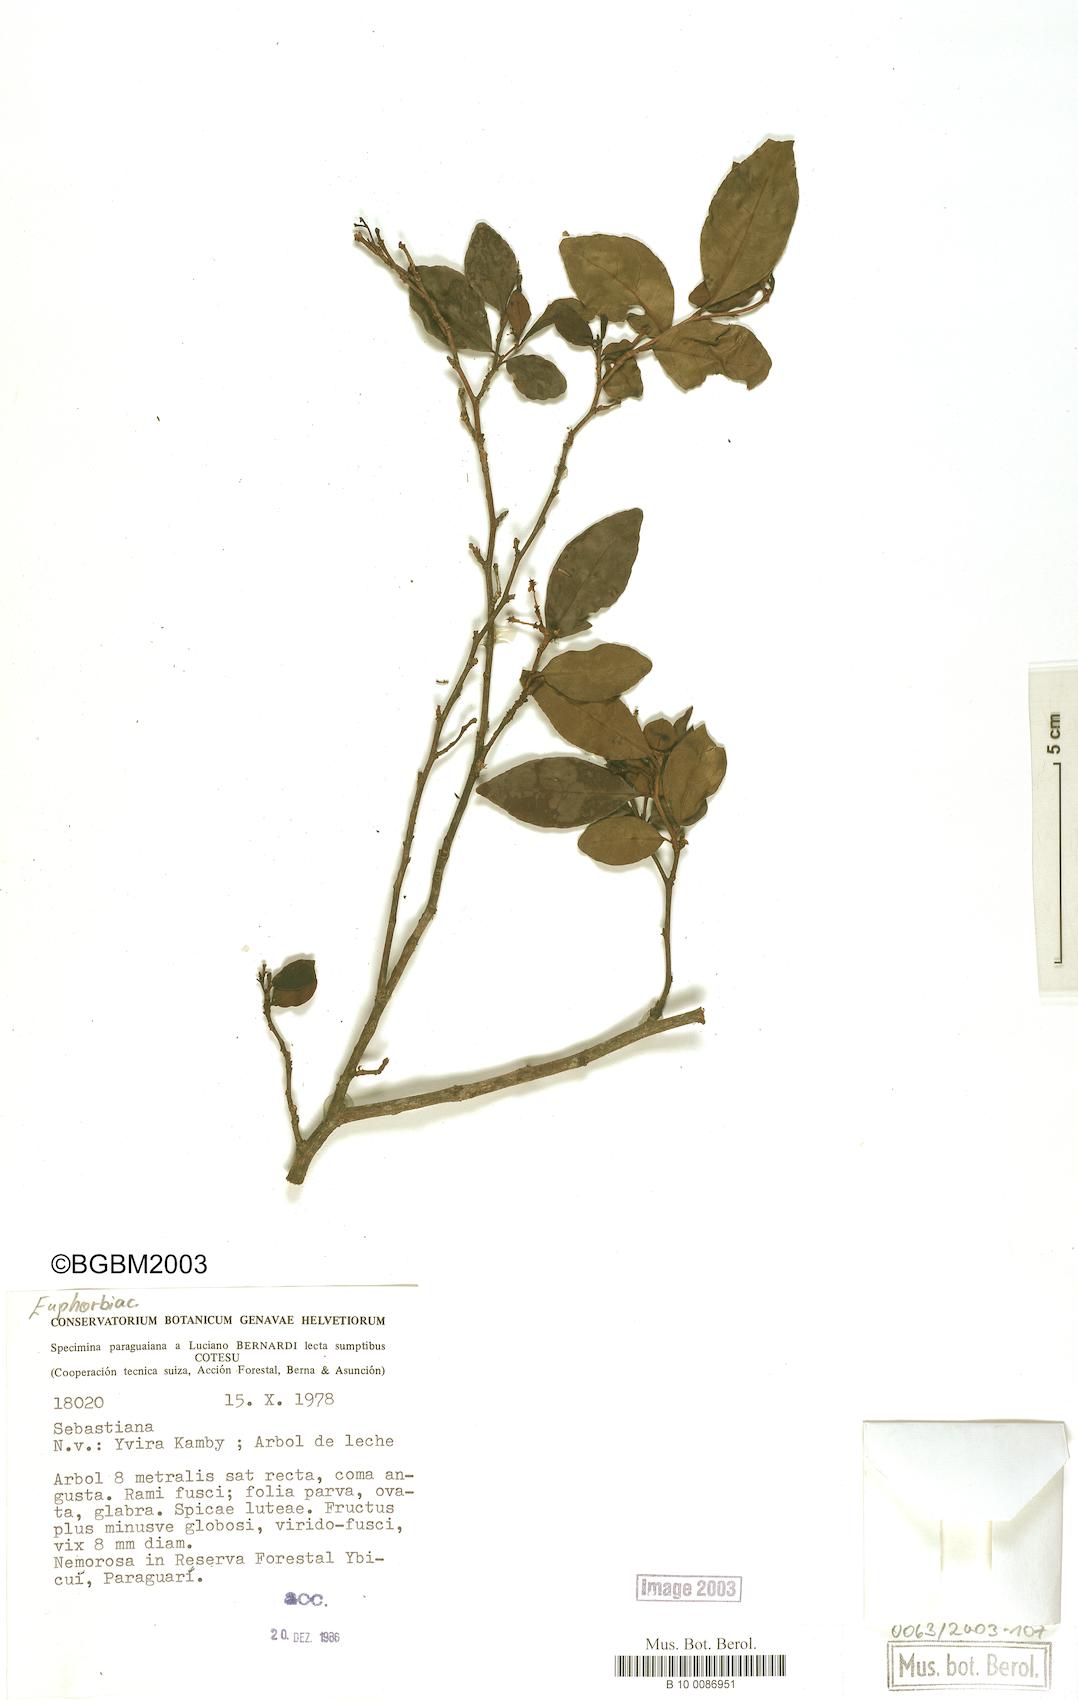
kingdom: Plantae
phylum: Tracheophyta
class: Magnoliopsida
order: Malpighiales
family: Euphorbiaceae
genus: Sebastiania
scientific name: Sebastiania brasiliensis
